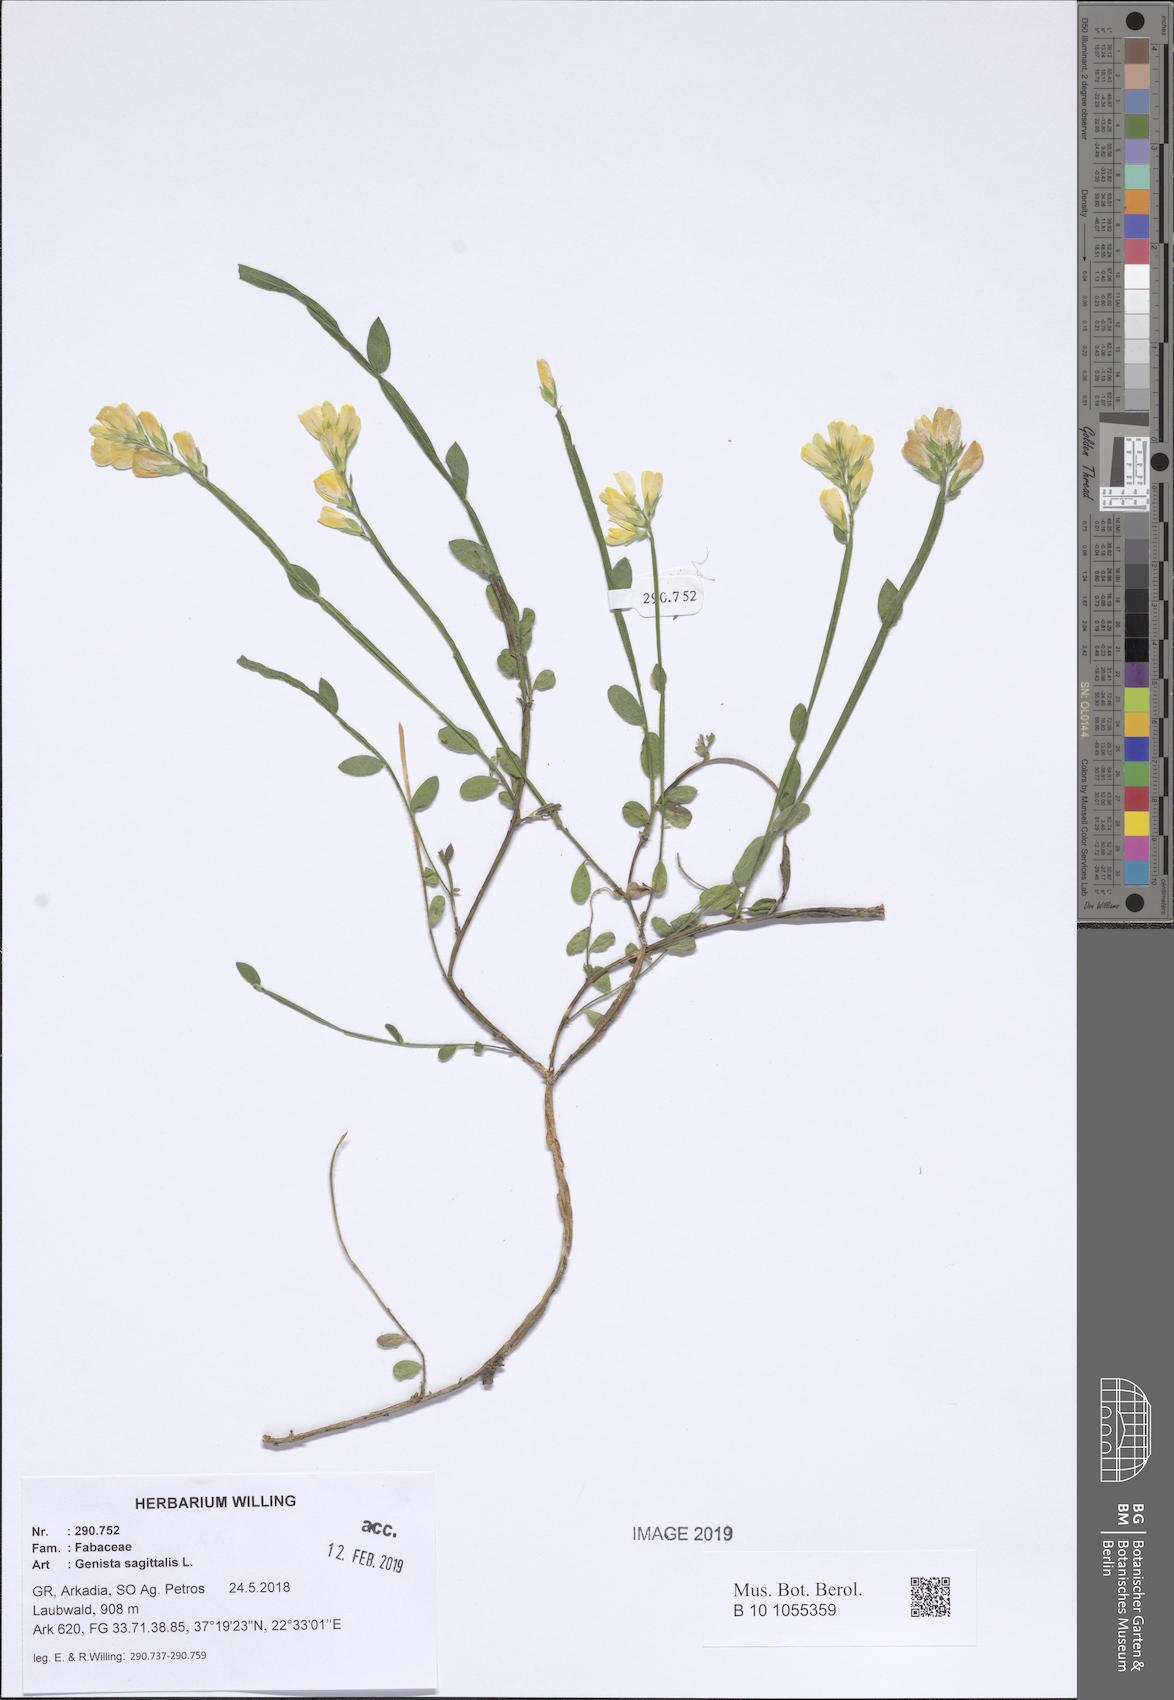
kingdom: Plantae
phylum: Tracheophyta
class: Magnoliopsida
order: Fabales
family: Fabaceae
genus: Genista
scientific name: Genista sagittalis
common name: Winged greenweed
